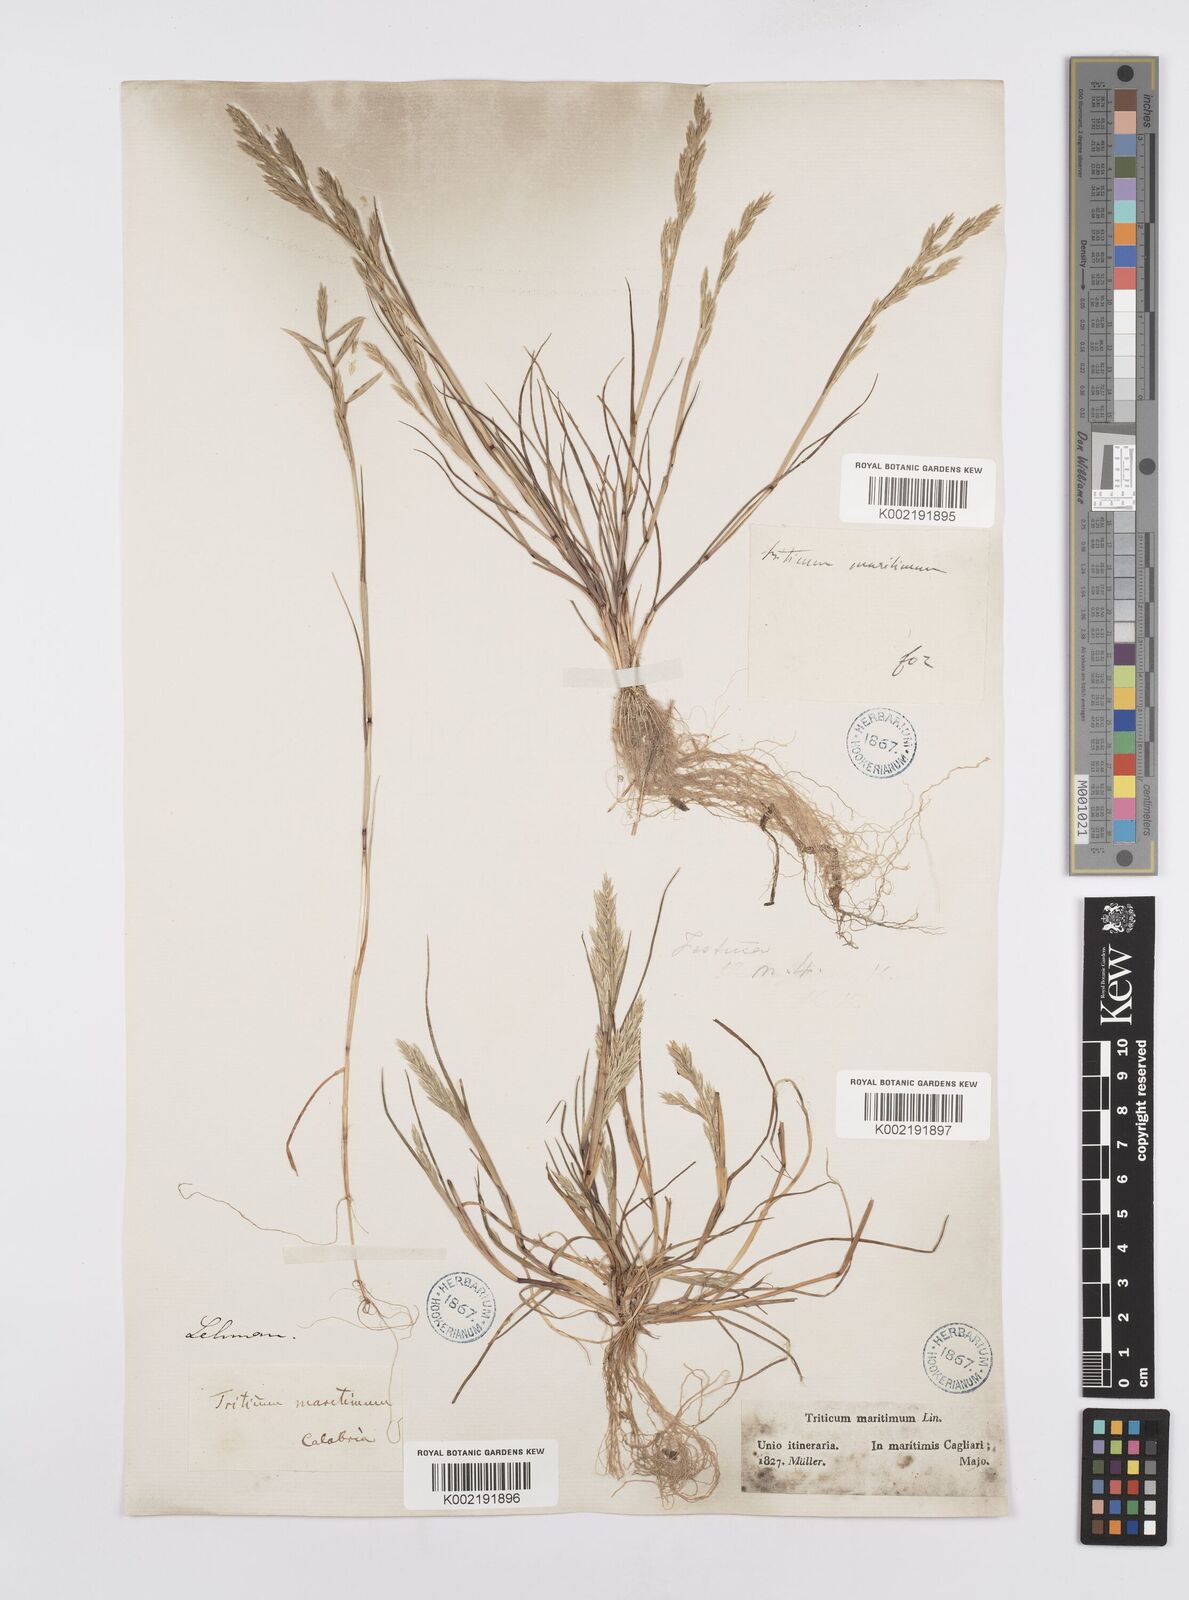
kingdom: Plantae
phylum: Tracheophyta
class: Liliopsida
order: Poales
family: Poaceae
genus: Cutandia
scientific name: Cutandia maritima
